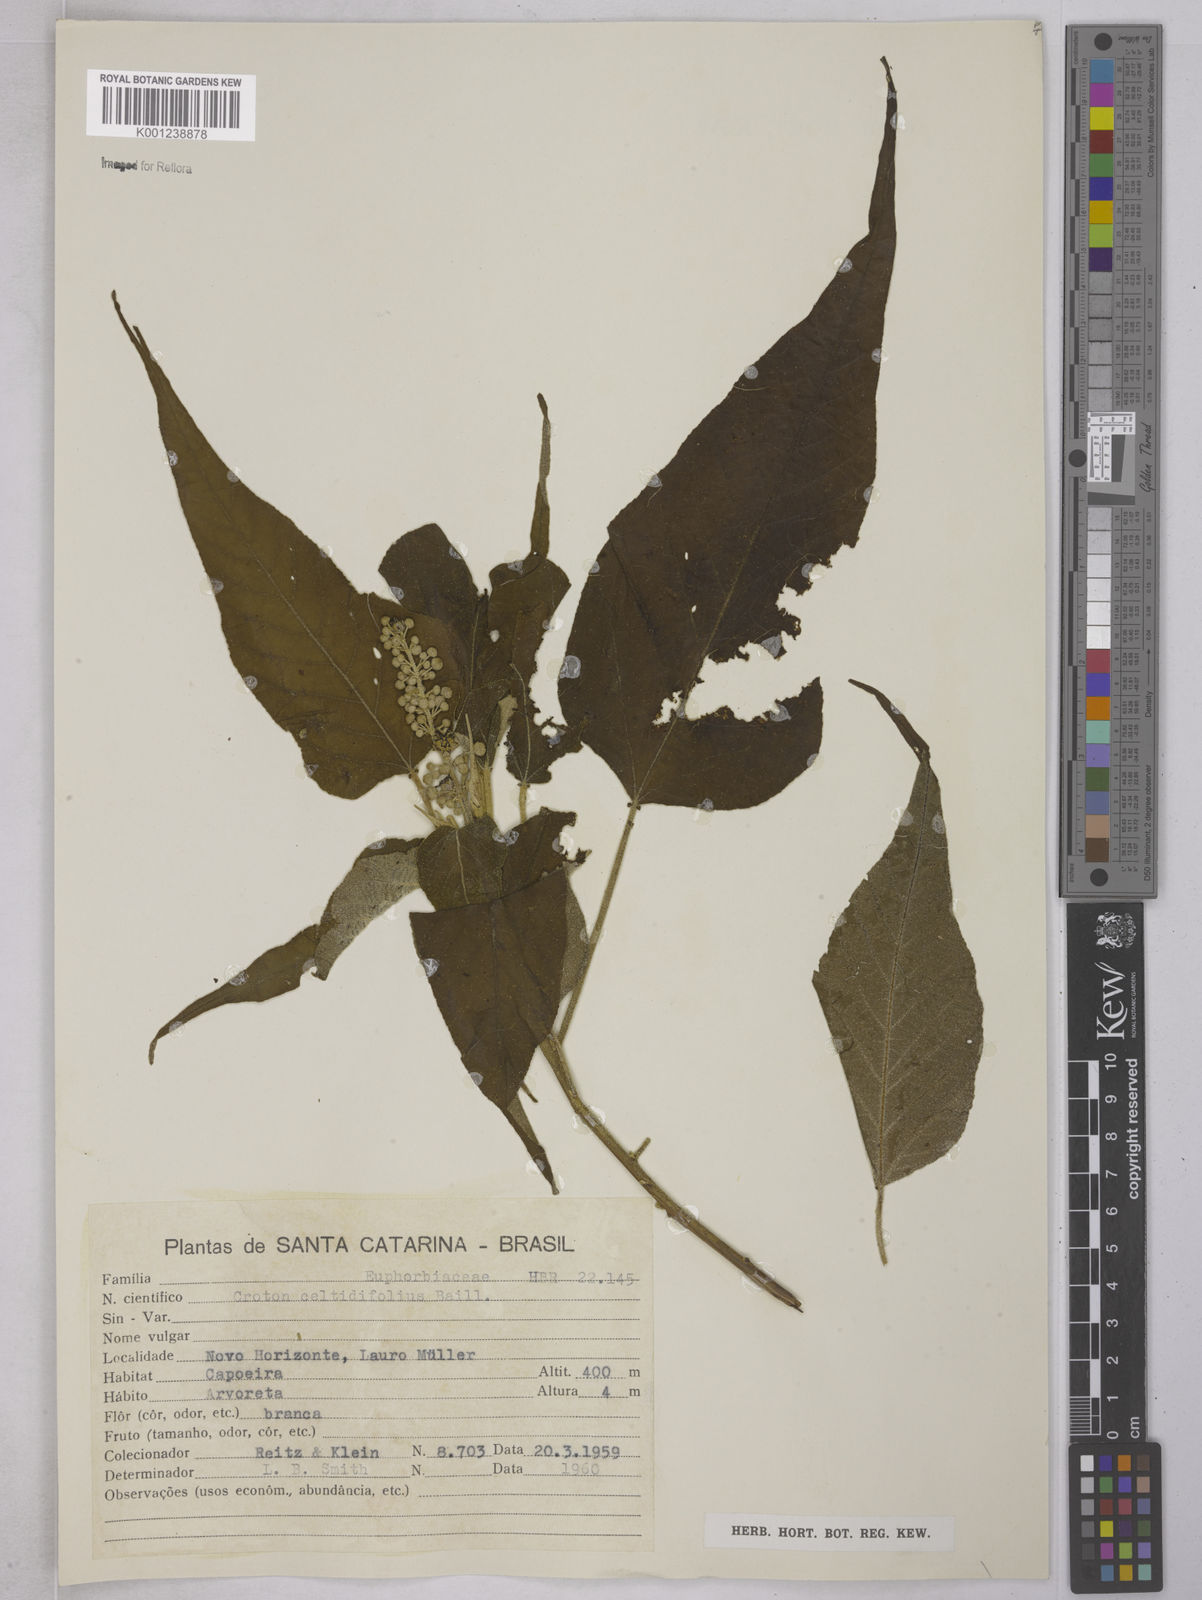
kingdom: Plantae
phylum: Tracheophyta
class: Magnoliopsida
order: Malpighiales
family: Euphorbiaceae
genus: Croton
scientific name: Croton celtidifolius
